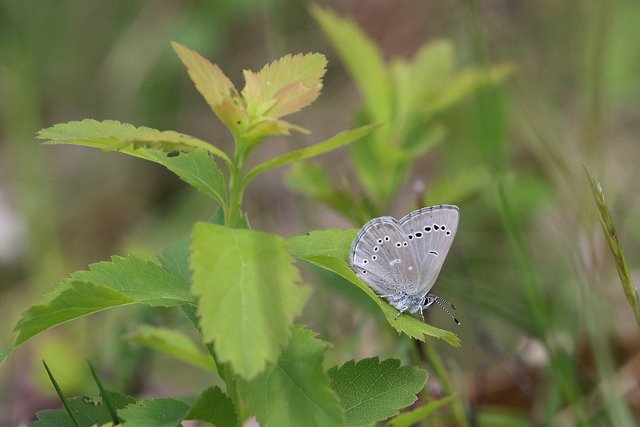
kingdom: Animalia
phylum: Arthropoda
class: Insecta
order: Lepidoptera
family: Lycaenidae
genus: Glaucopsyche
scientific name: Glaucopsyche lygdamus
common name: Silvery Blue
